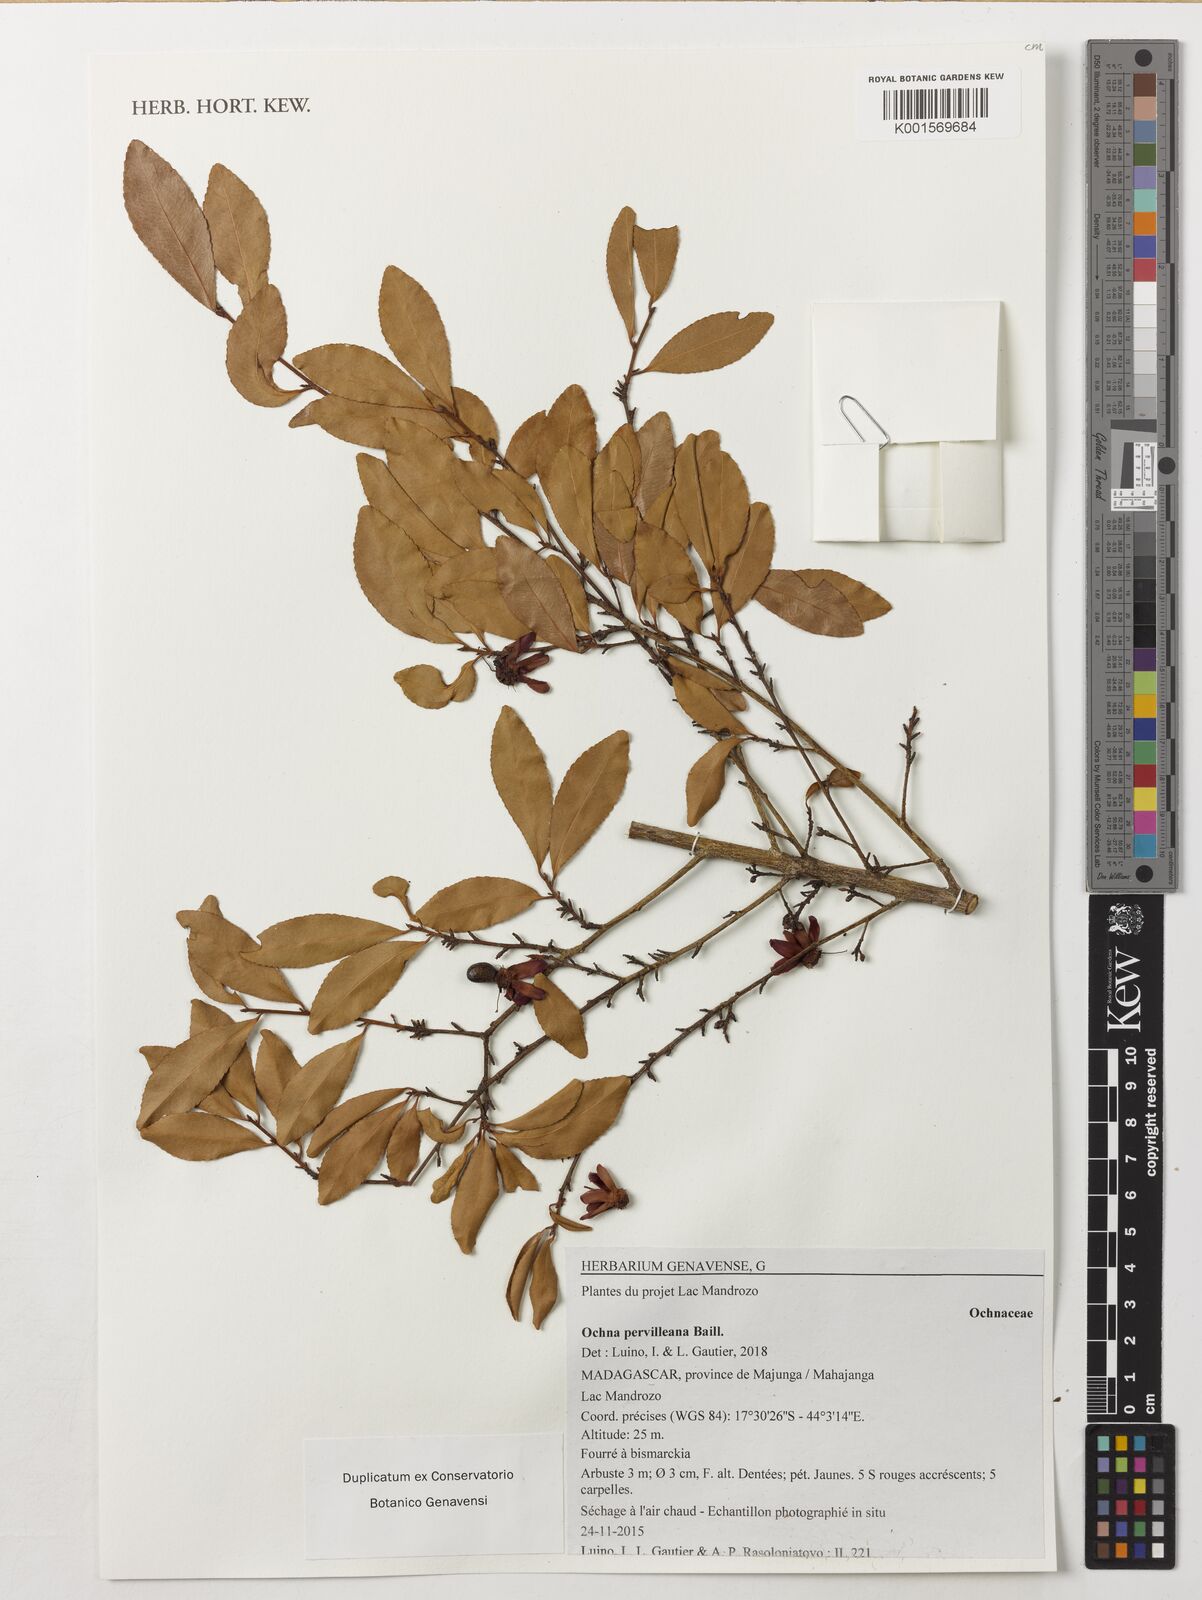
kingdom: Plantae
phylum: Tracheophyta
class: Magnoliopsida
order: Malpighiales
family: Ochnaceae
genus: Ochna
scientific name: Ochna pervilleana
